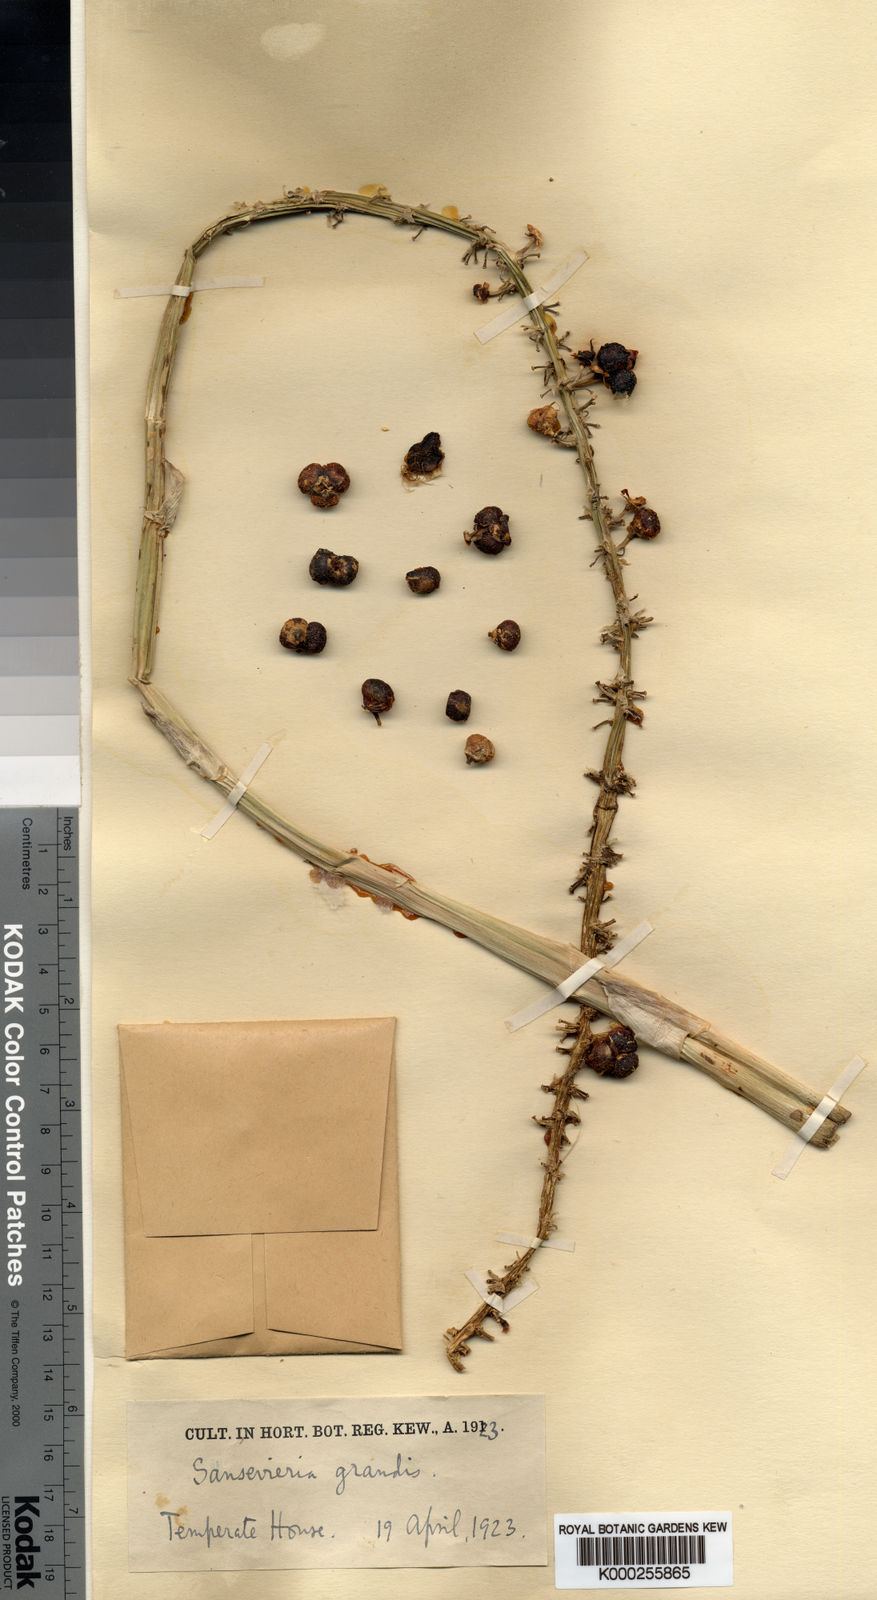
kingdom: Plantae
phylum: Tracheophyta
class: Liliopsida
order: Asparagales
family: Asparagaceae
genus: Dracaena
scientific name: Dracaena hyacinthoides
